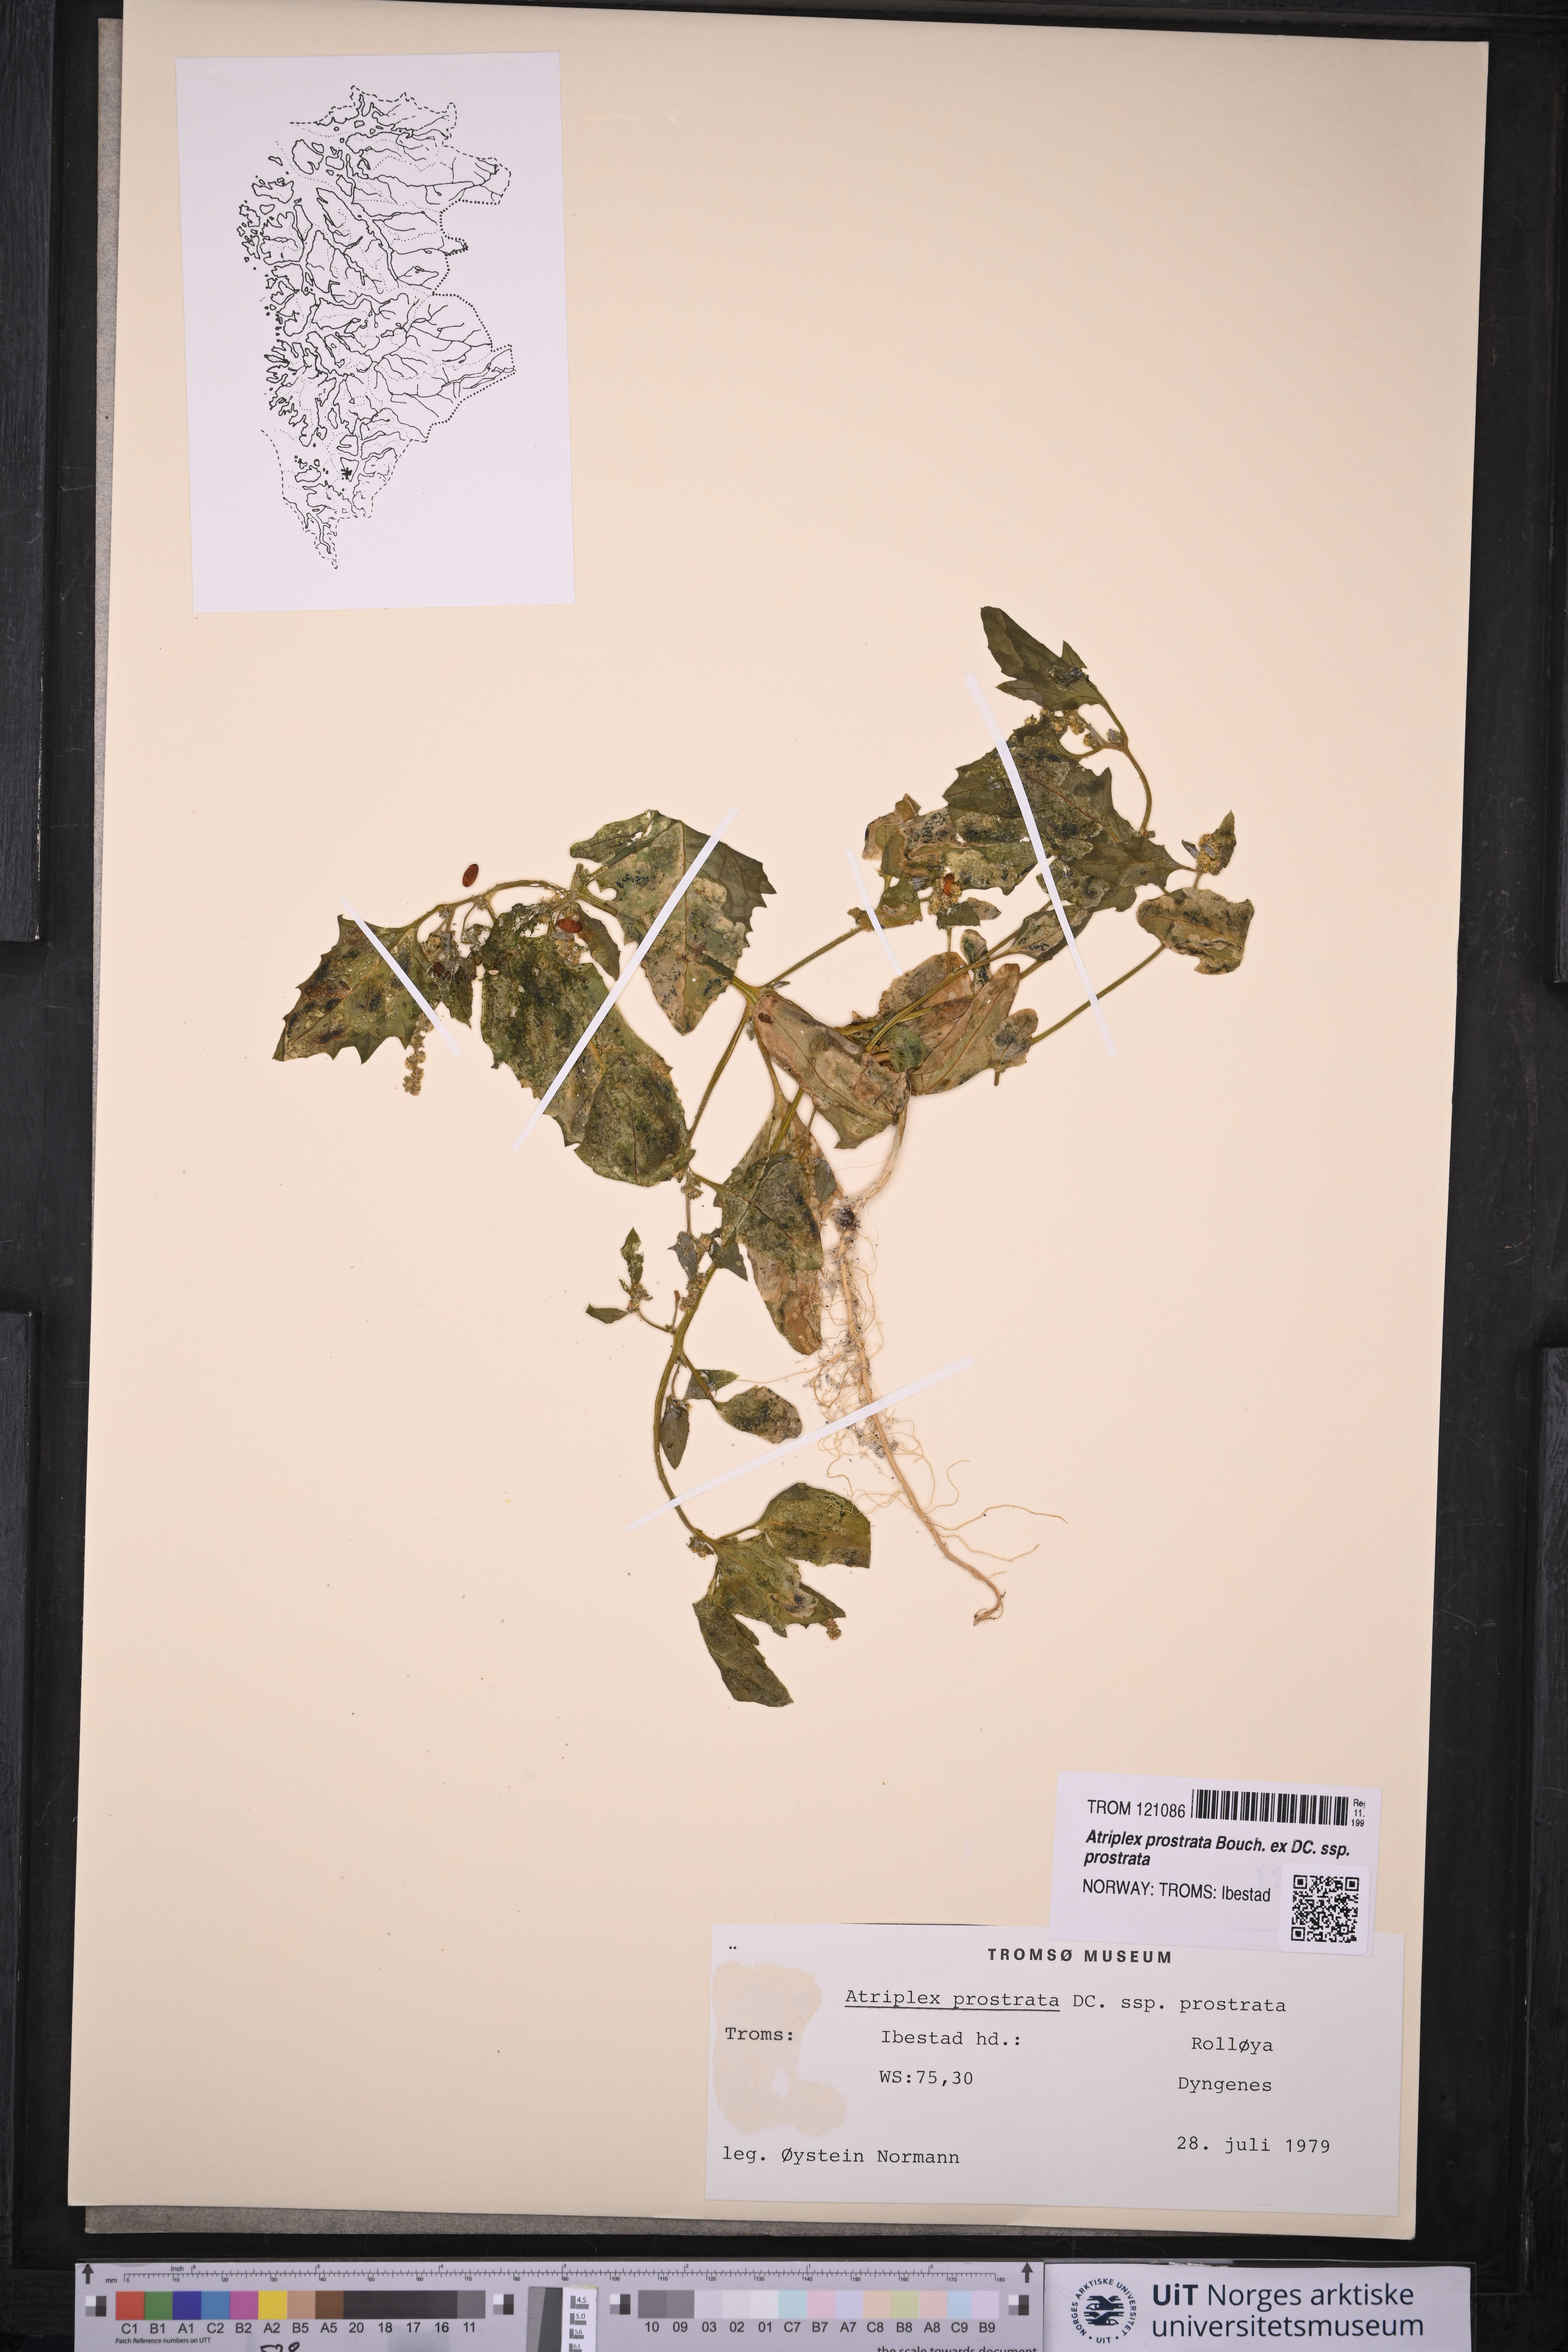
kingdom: Plantae
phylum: Tracheophyta
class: Magnoliopsida
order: Caryophyllales
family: Amaranthaceae
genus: Atriplex
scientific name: Atriplex prostrata
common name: Spear-leaved orache
